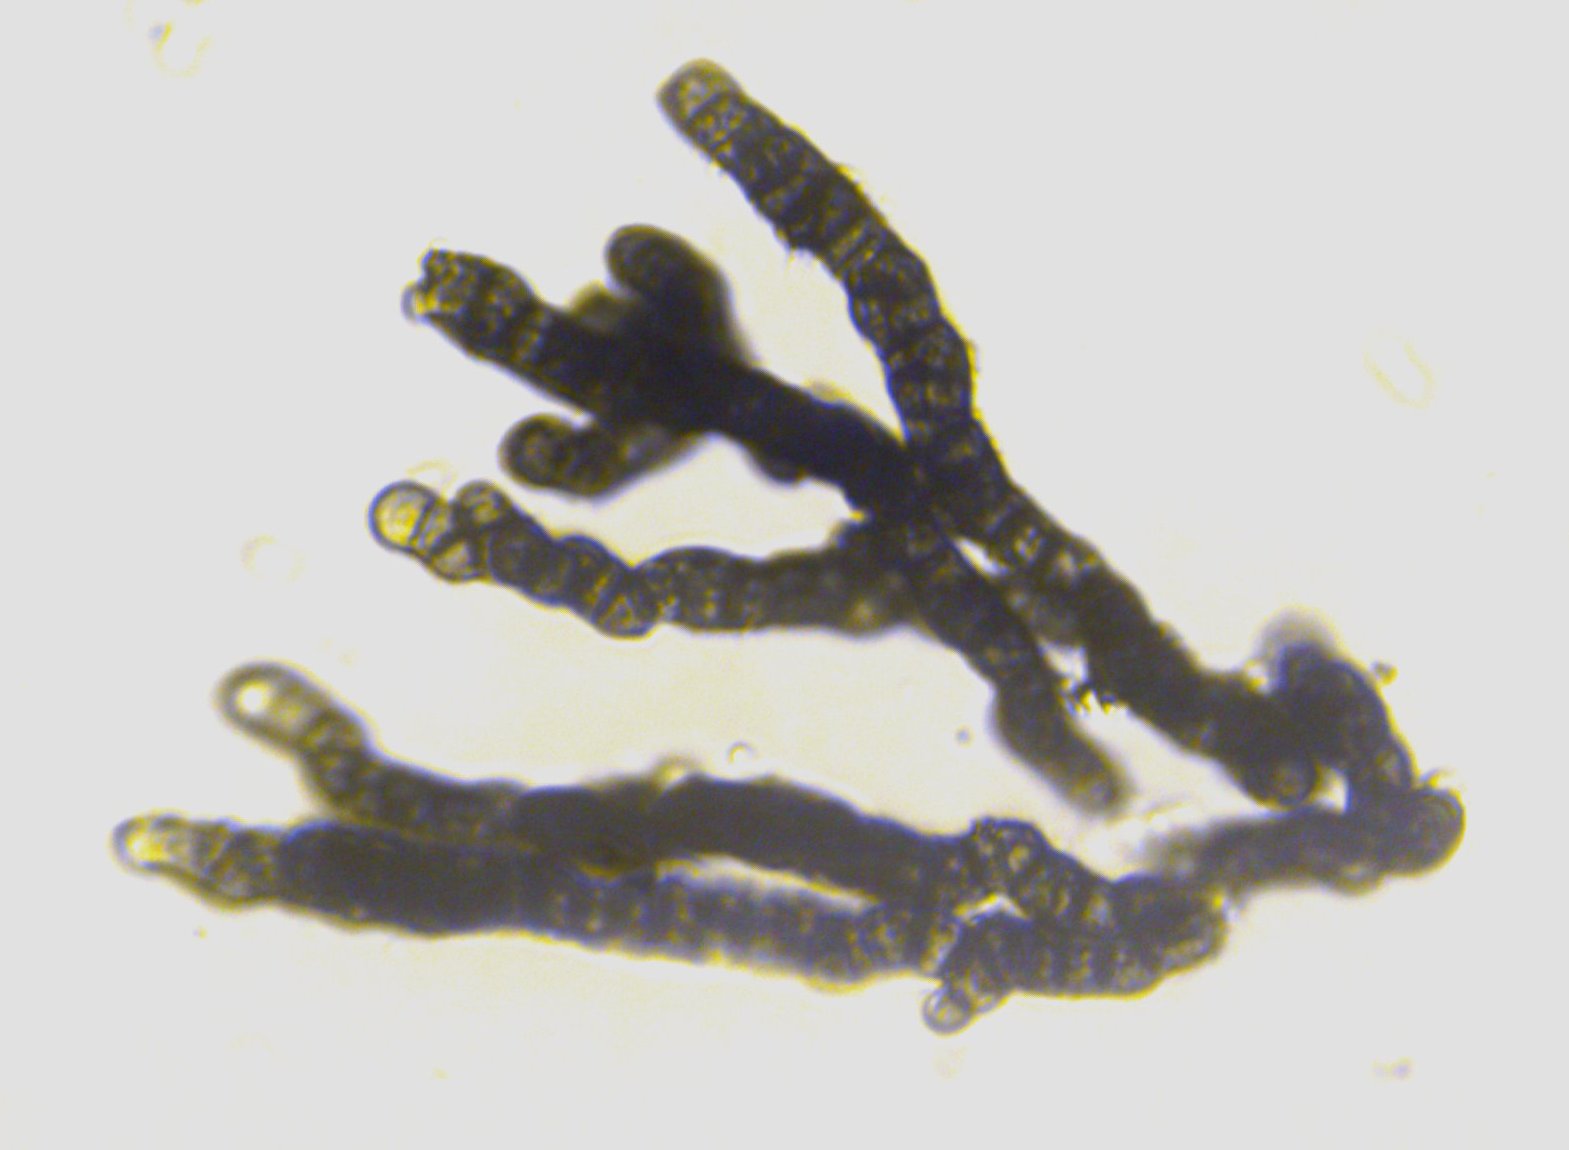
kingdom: Fungi
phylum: Ascomycota
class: Dothideomycetes
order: Mytilinidiales
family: Mytilinidiaceae
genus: Taeniolella
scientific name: Taeniolella stilbospora
